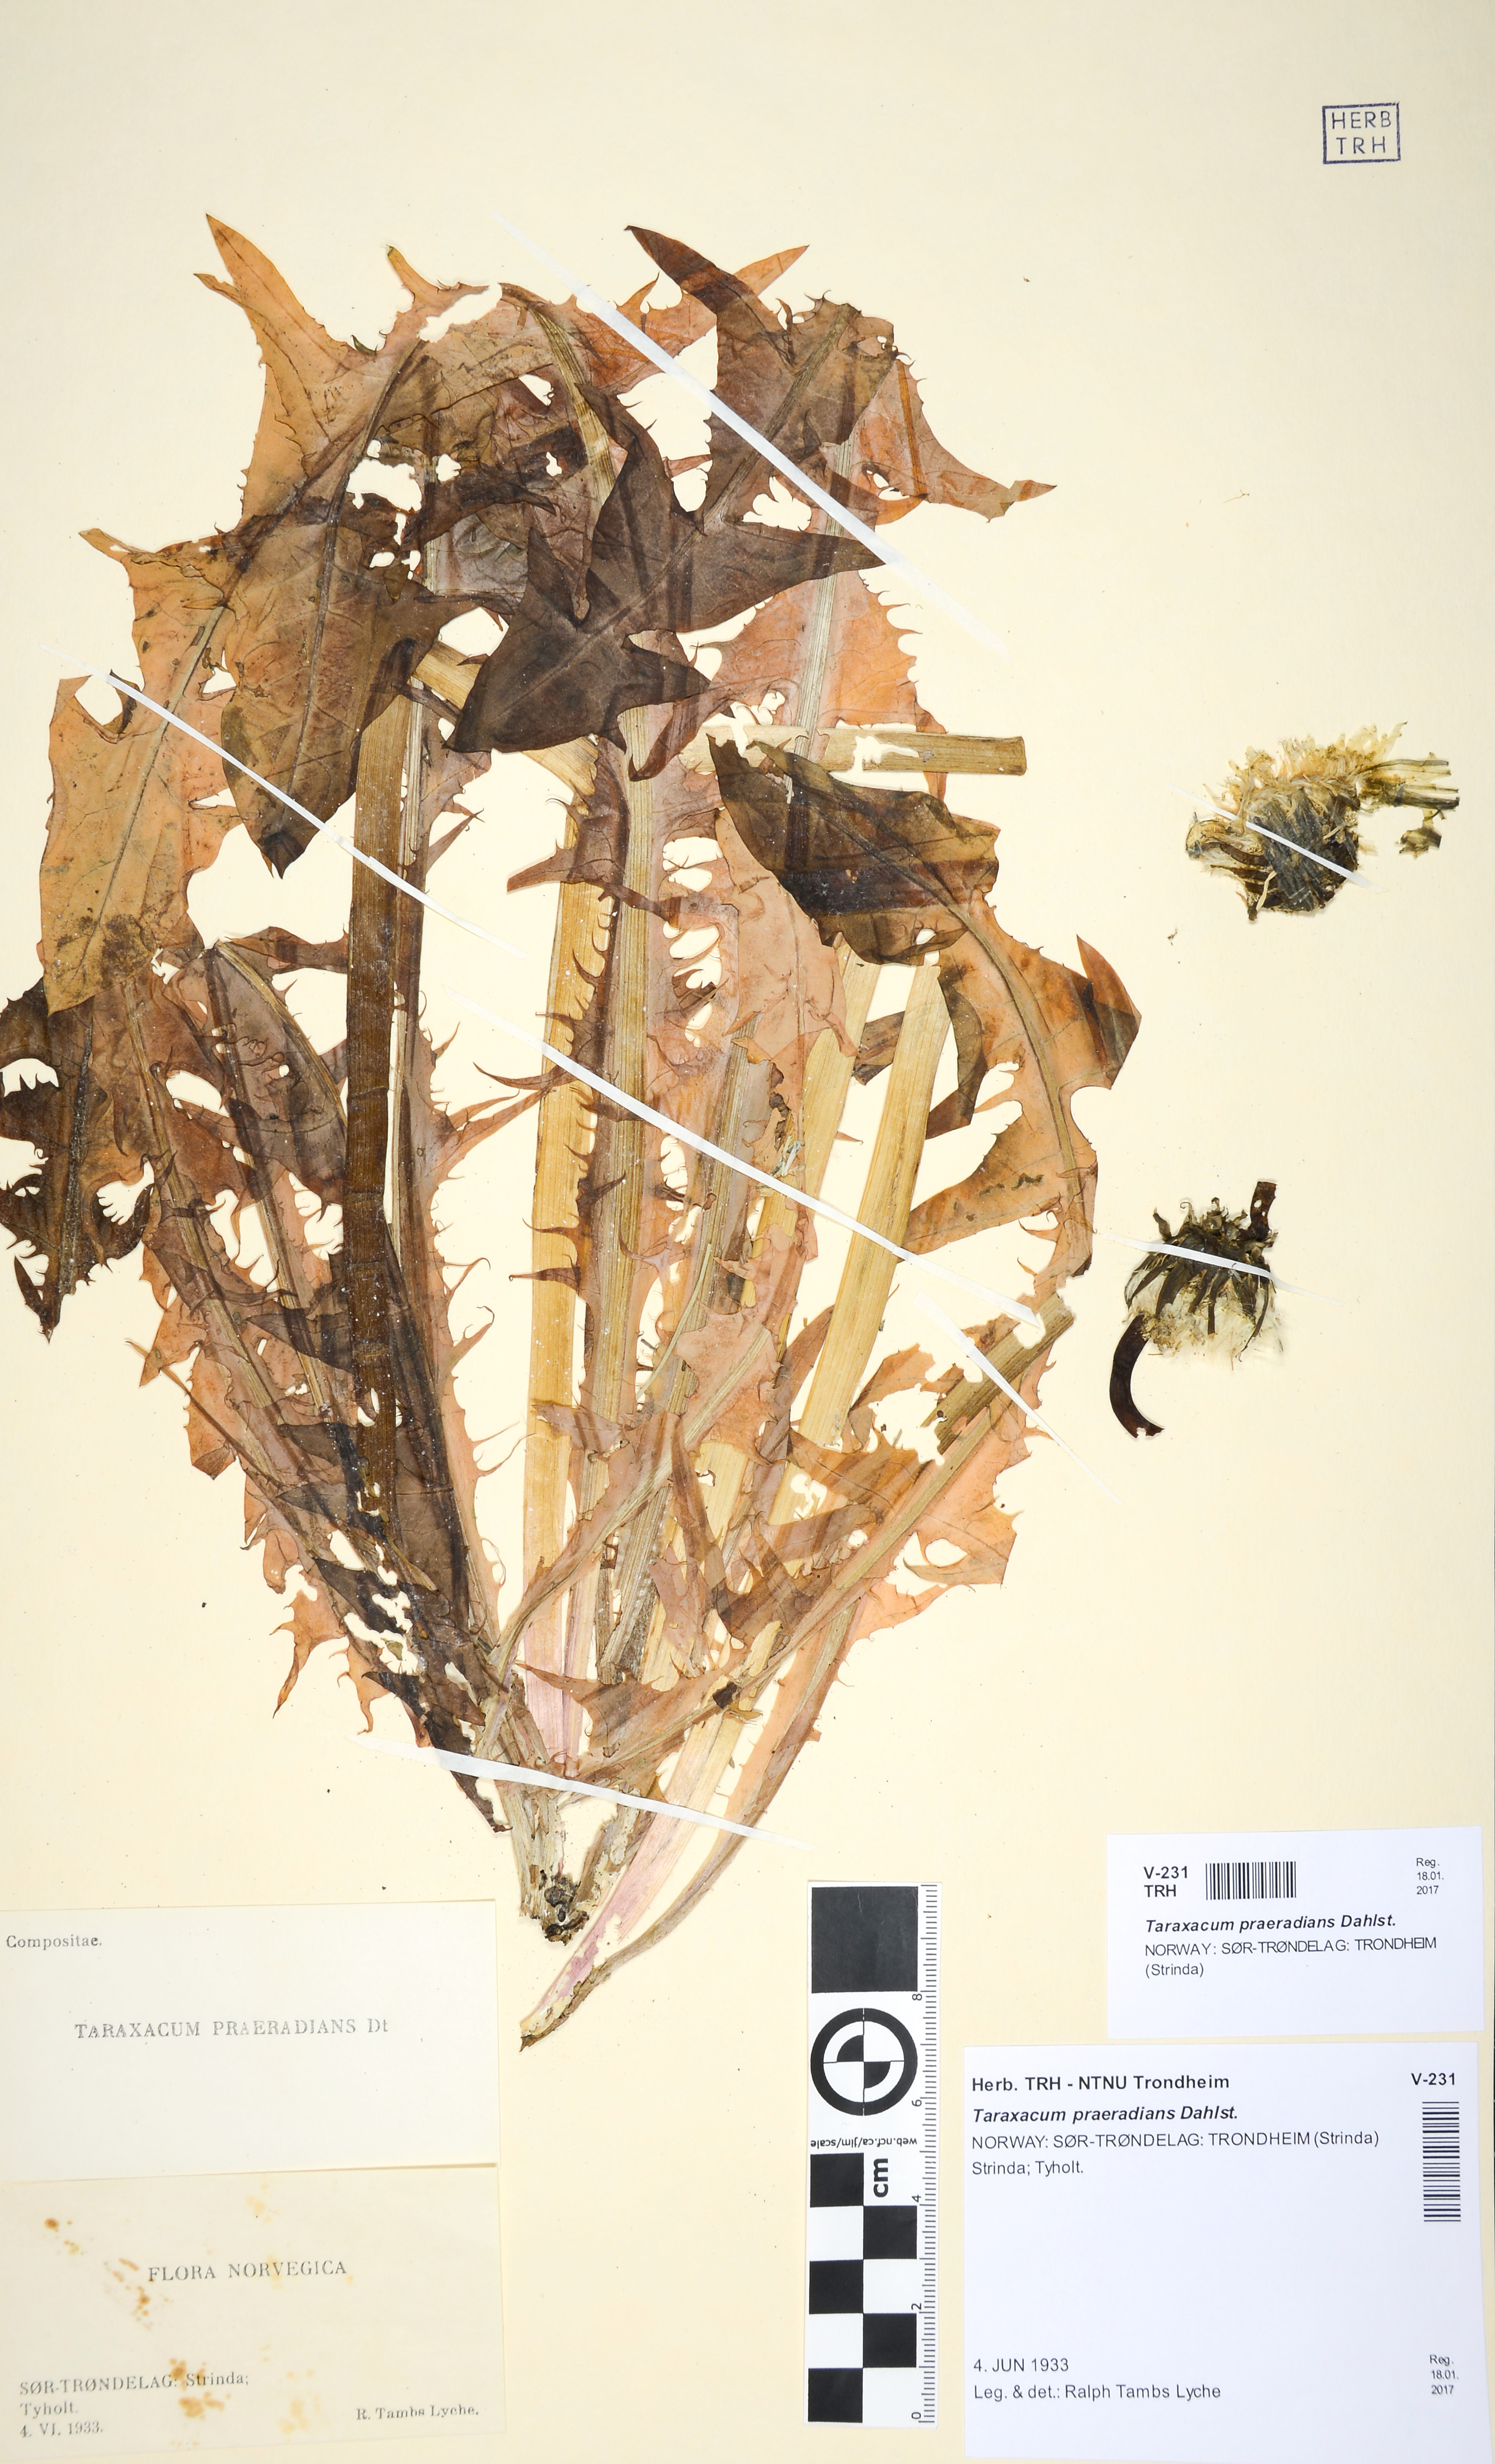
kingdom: Plantae
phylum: Tracheophyta
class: Magnoliopsida
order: Asterales
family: Asteraceae
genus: Taraxacum
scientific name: Taraxacum praeradians
